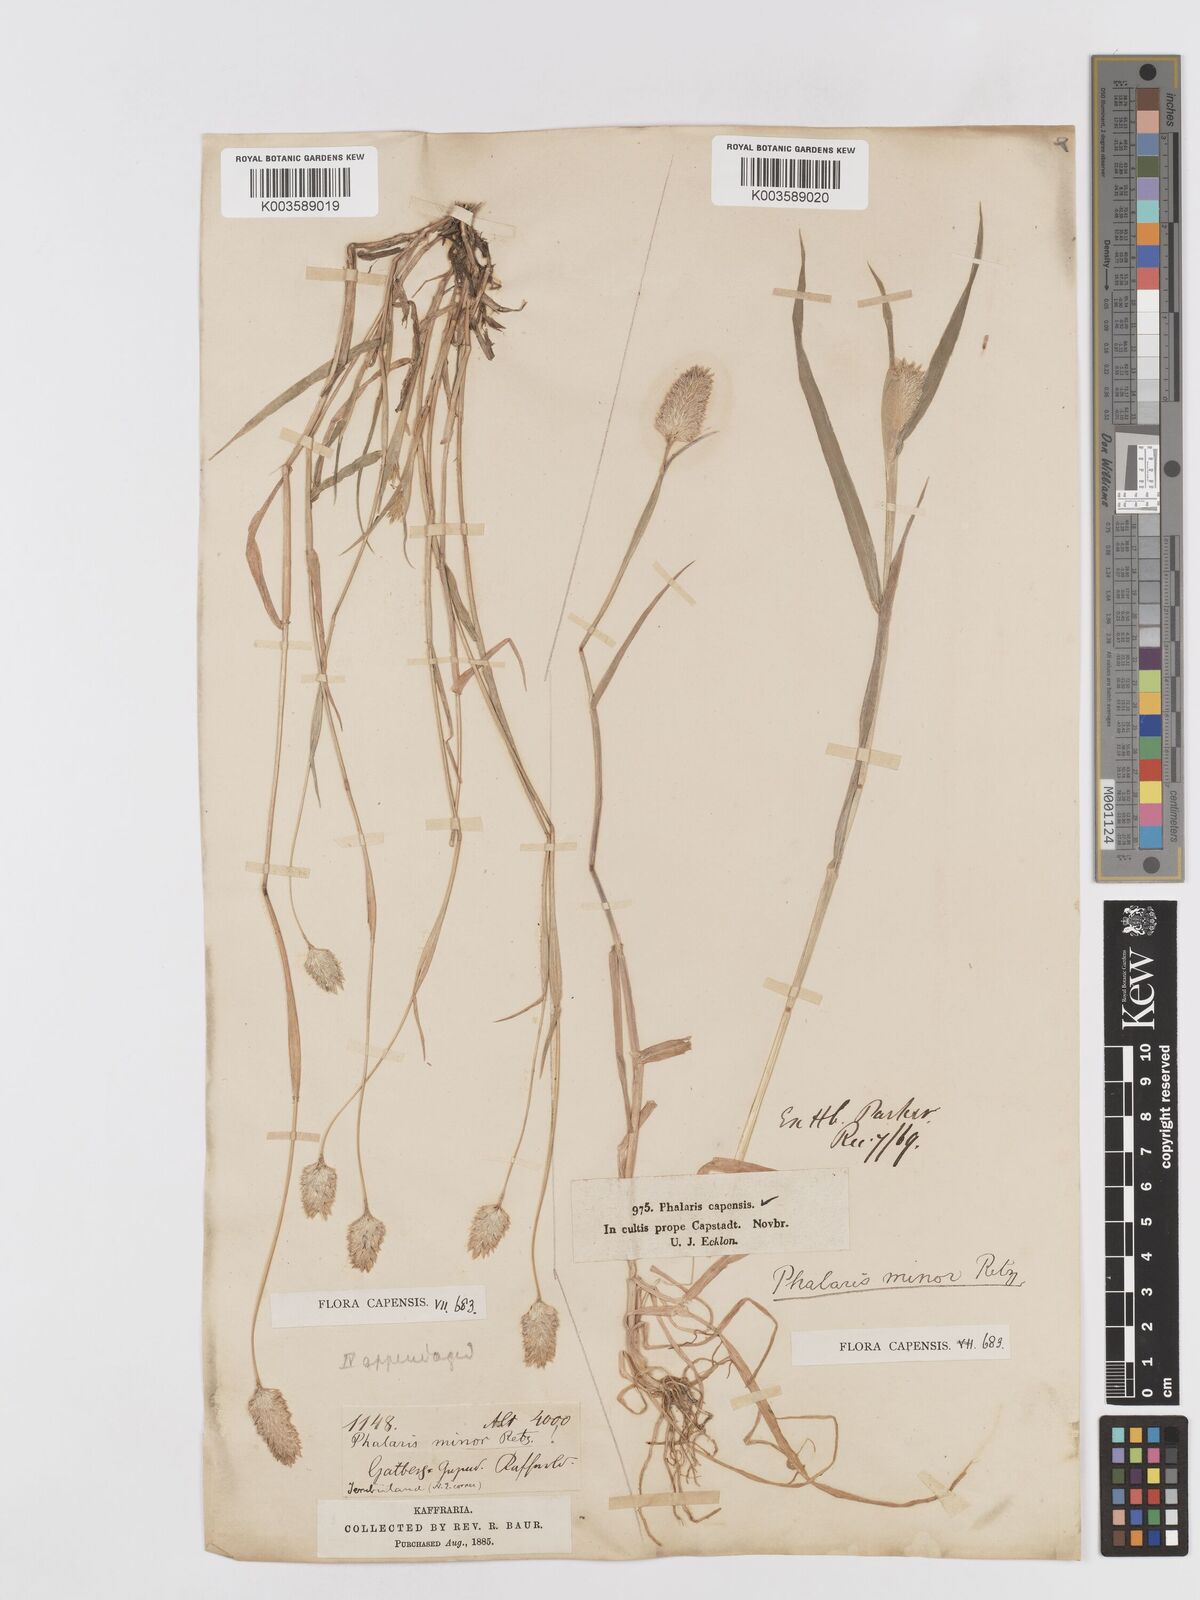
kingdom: Plantae
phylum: Tracheophyta
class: Liliopsida
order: Poales
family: Poaceae
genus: Phalaris
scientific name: Phalaris minor
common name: Littleseed canarygrass
